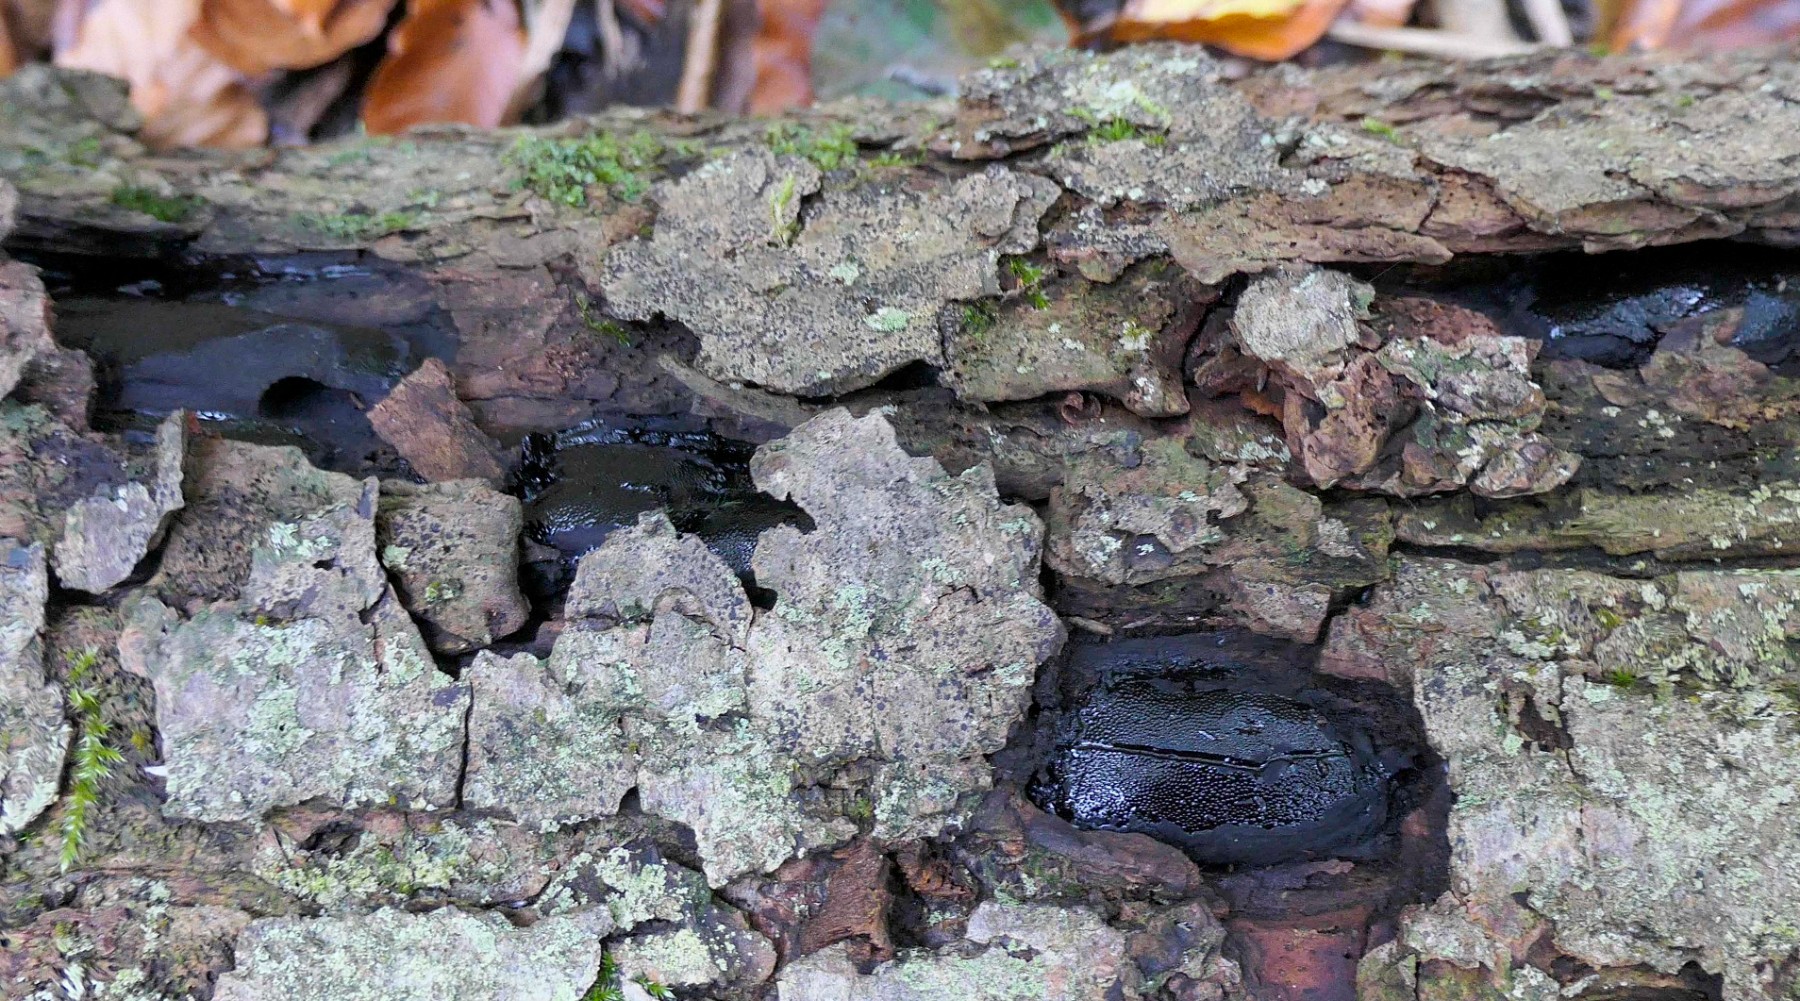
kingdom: Fungi
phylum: Ascomycota
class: Sordariomycetes
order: Boliniales
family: Boliniaceae
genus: Camarops
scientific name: Camarops polysperma
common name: elle-kulsnegl
